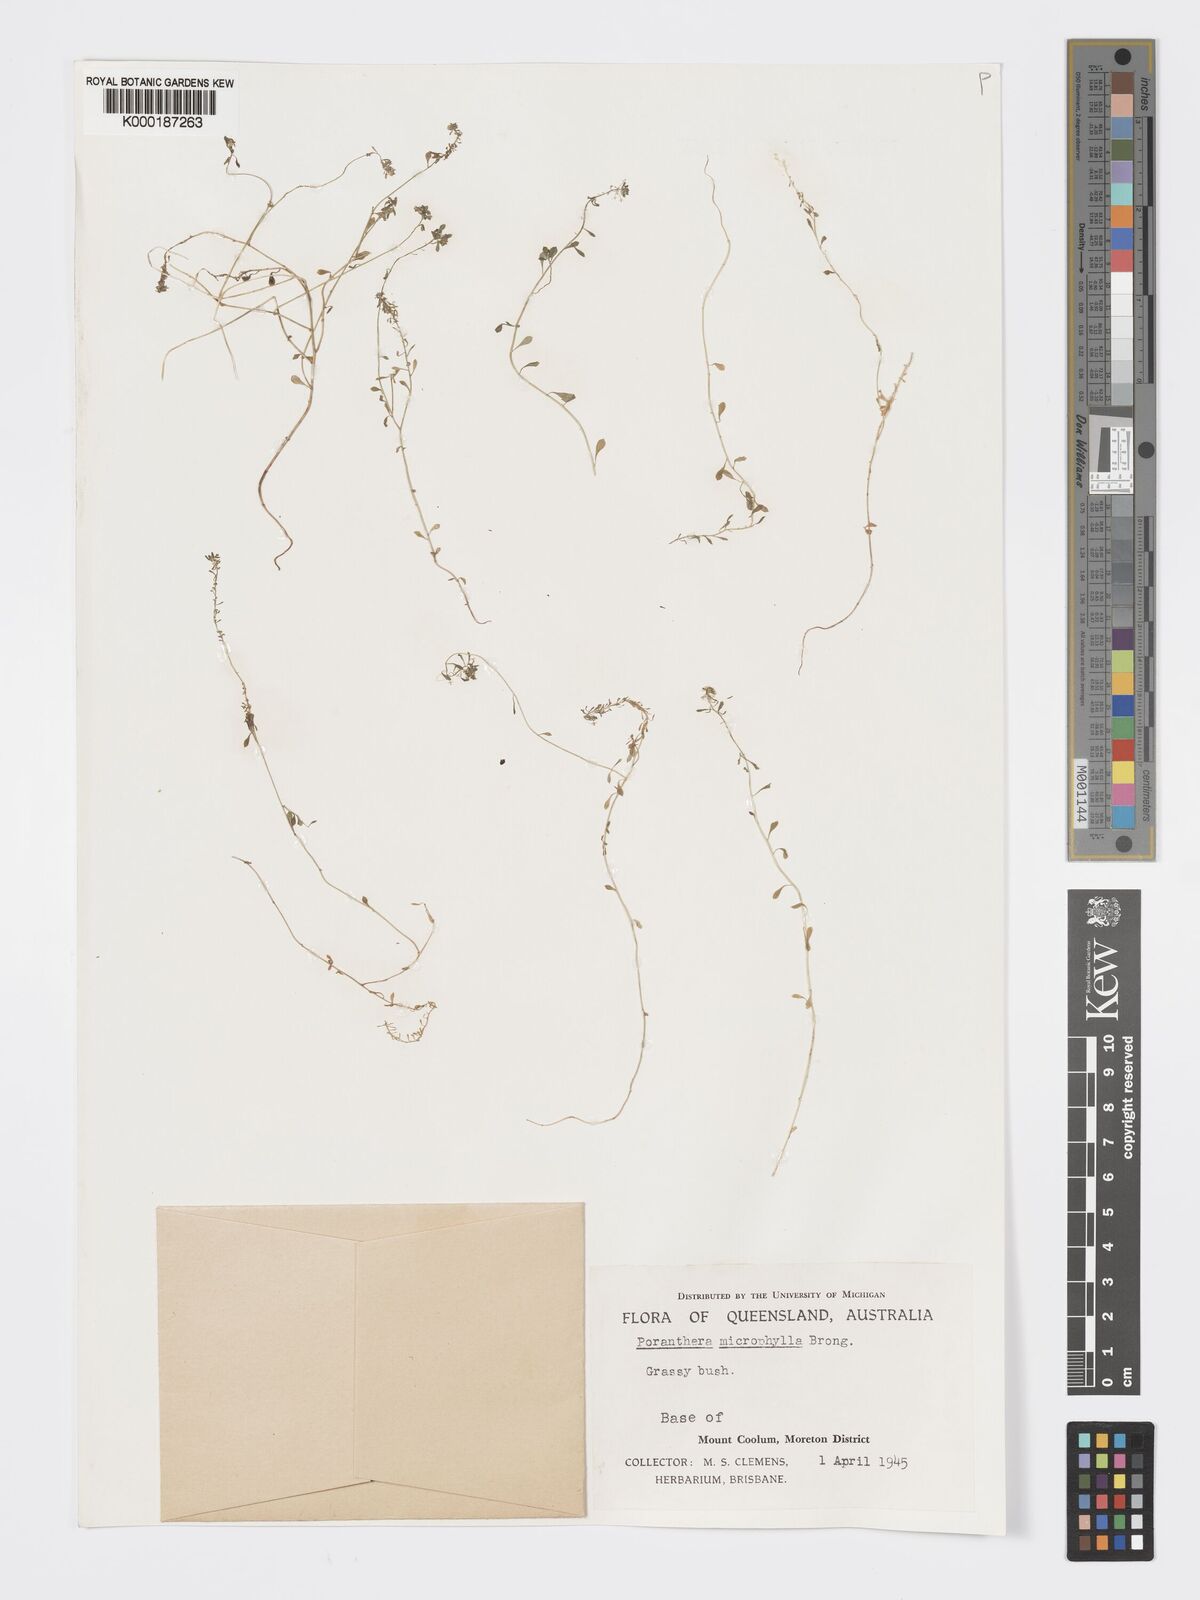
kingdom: Plantae
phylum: Tracheophyta
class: Magnoliopsida
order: Malpighiales
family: Phyllanthaceae
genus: Poranthera
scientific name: Poranthera microphylla
